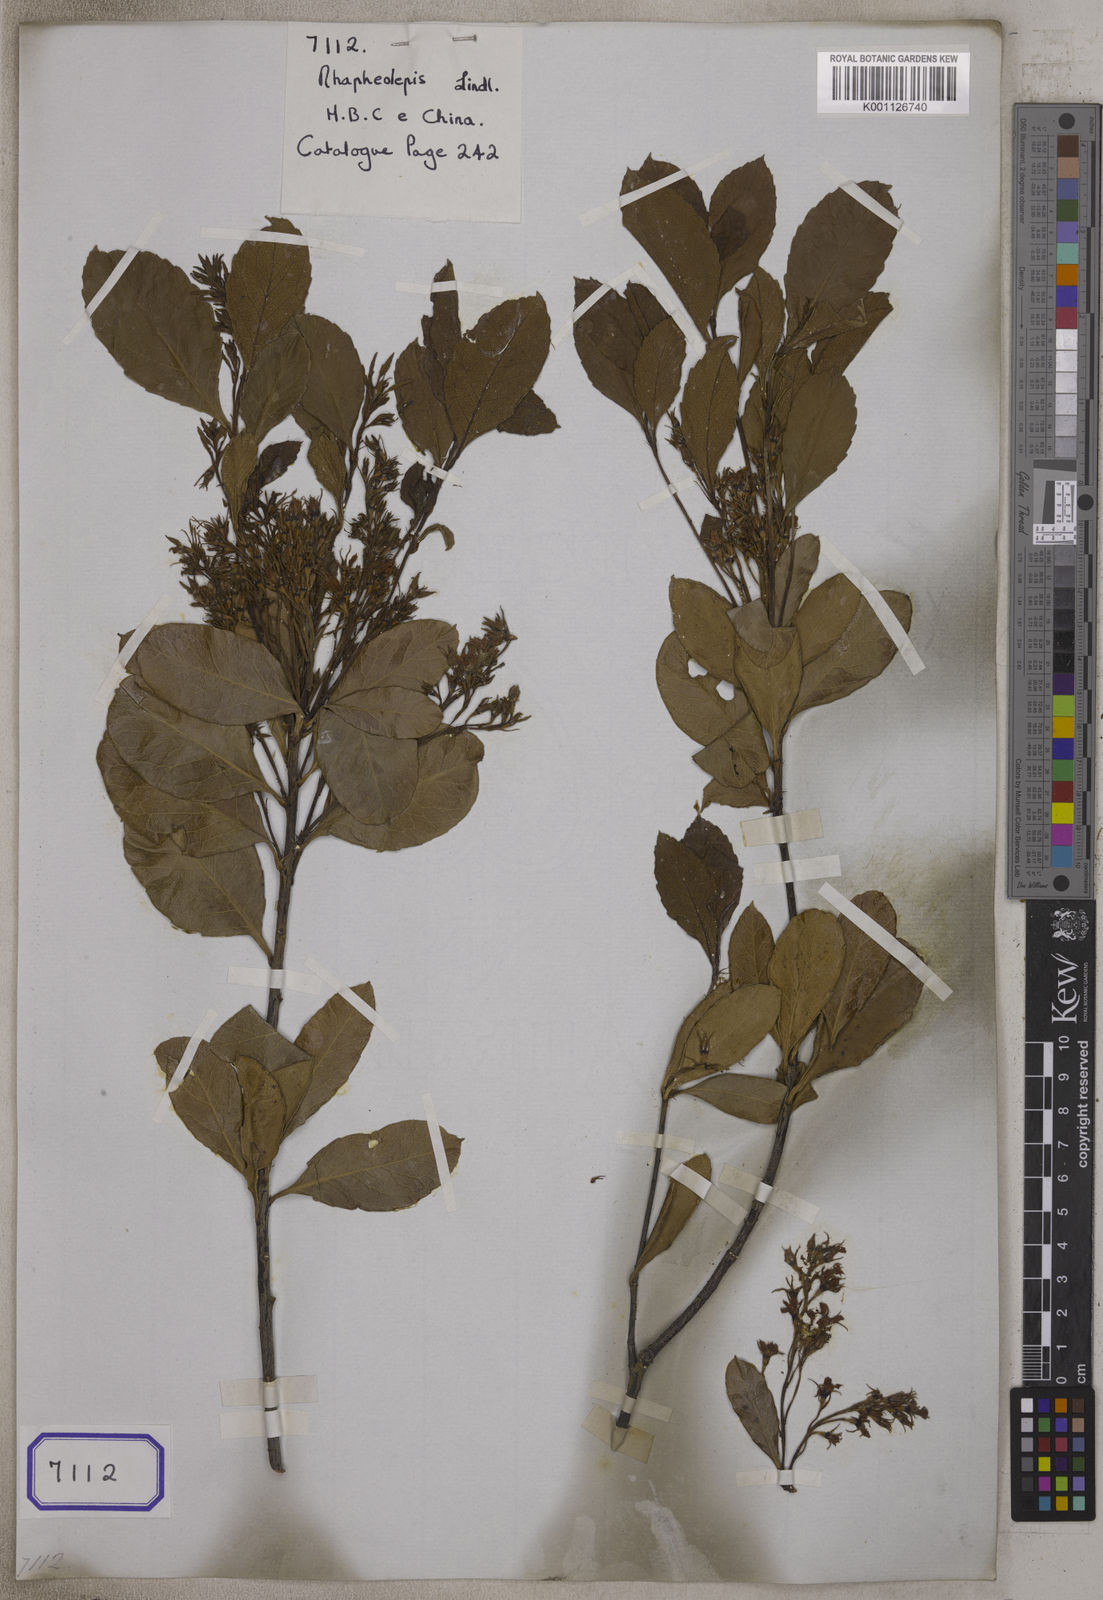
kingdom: Plantae
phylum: Tracheophyta
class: Magnoliopsida
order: Rosales
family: Rosaceae
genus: Rhaphiolepis
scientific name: Rhaphiolepis indica
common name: India-hawthorn
